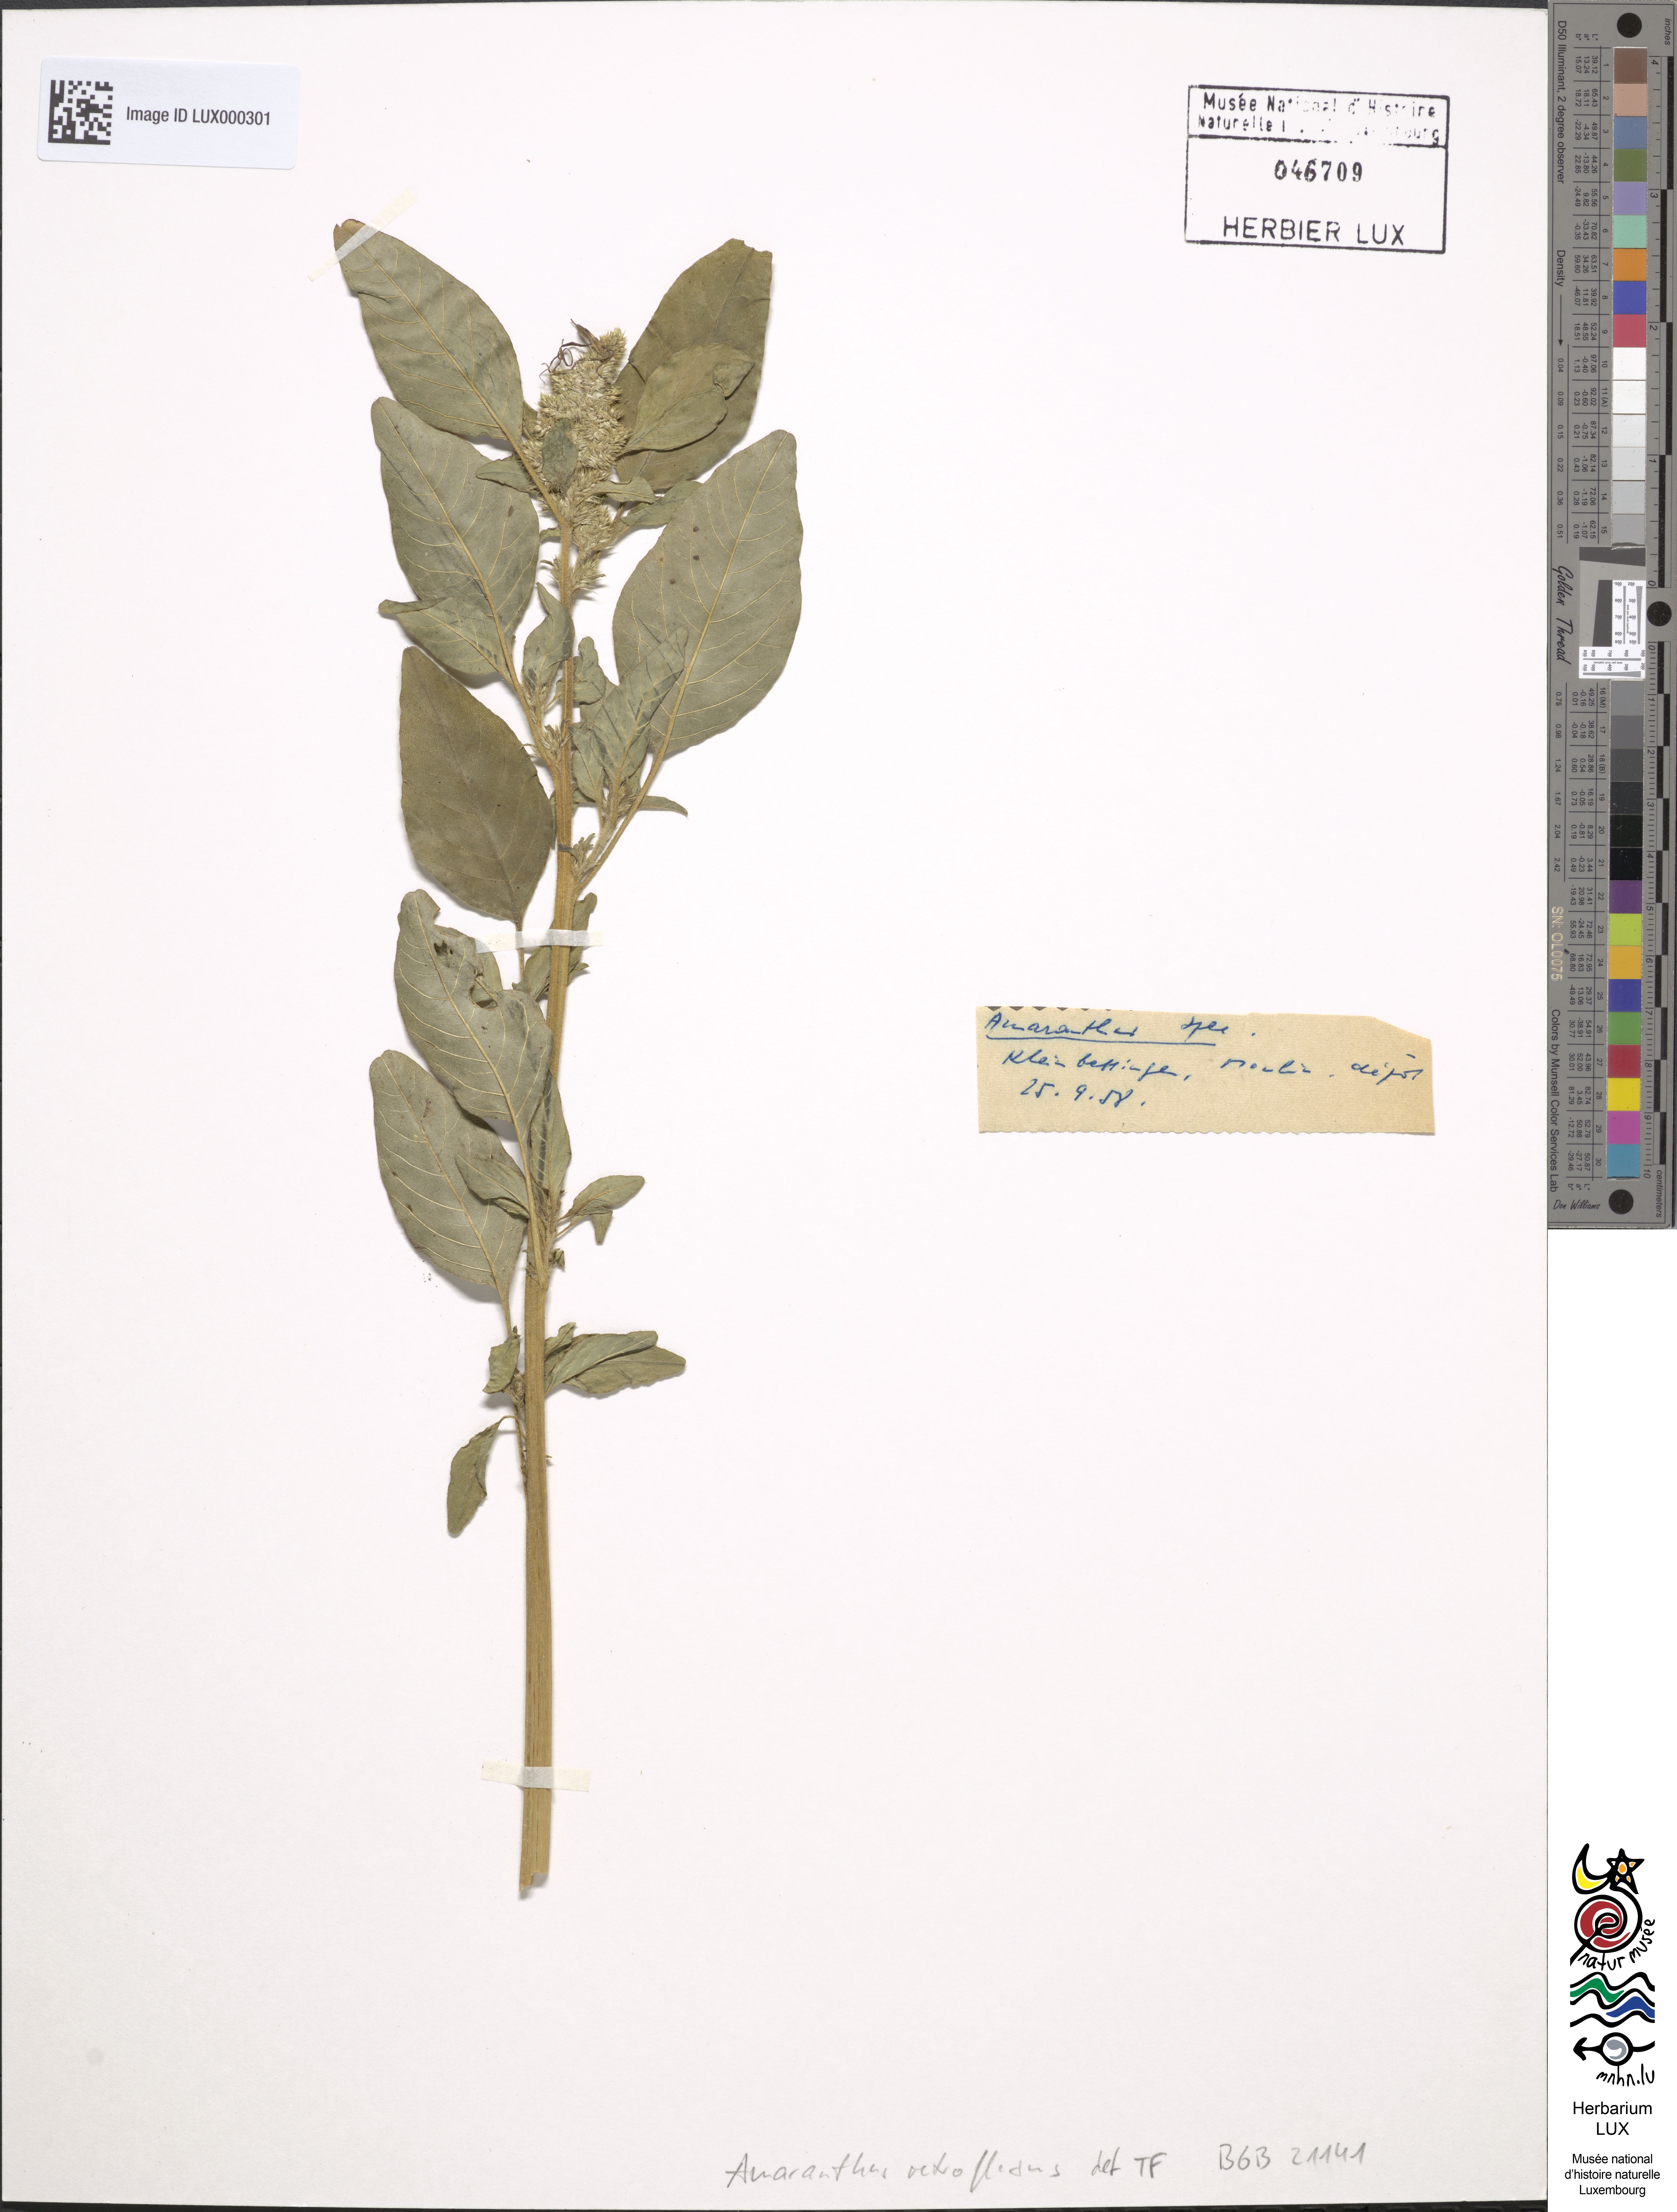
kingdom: Plantae
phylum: Tracheophyta
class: Magnoliopsida
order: Caryophyllales
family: Amaranthaceae
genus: Amaranthus
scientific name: Amaranthus retroflexus
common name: Redroot amaranth
